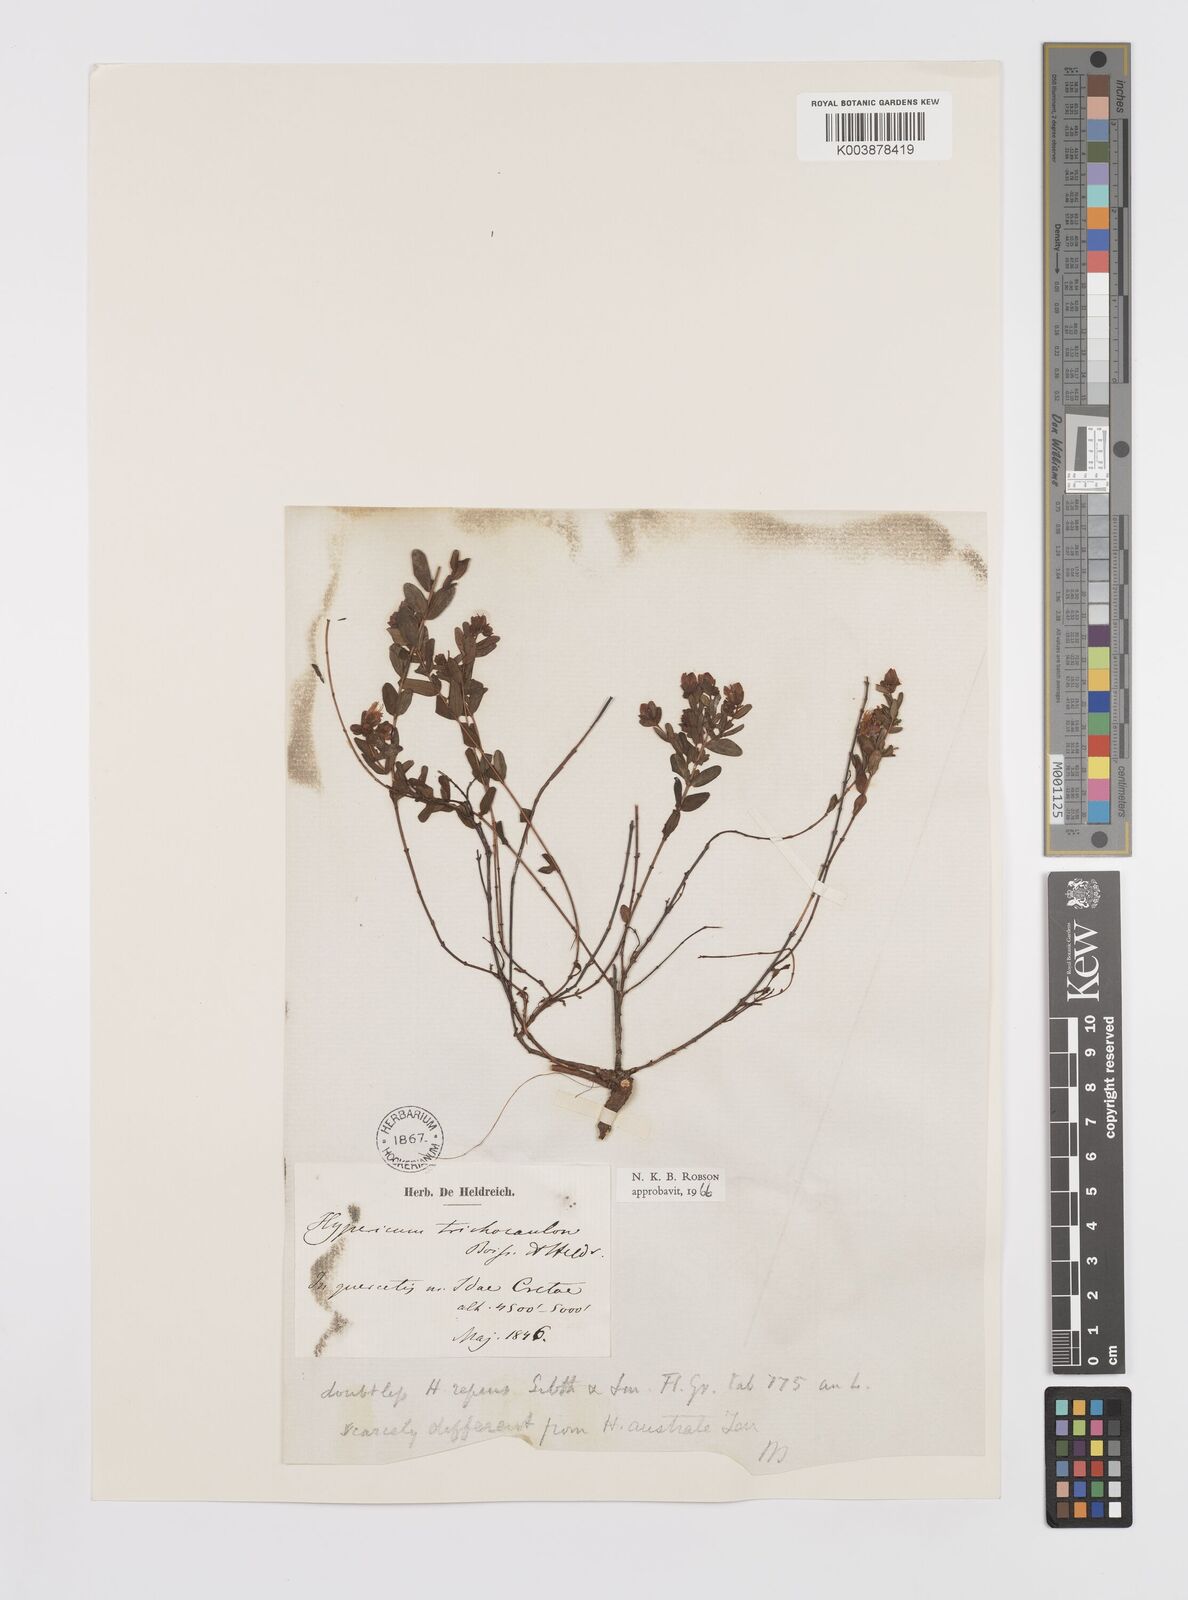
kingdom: Plantae
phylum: Tracheophyta
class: Magnoliopsida
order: Malpighiales
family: Hypericaceae
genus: Hypericum
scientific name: Hypericum trichocaulon
